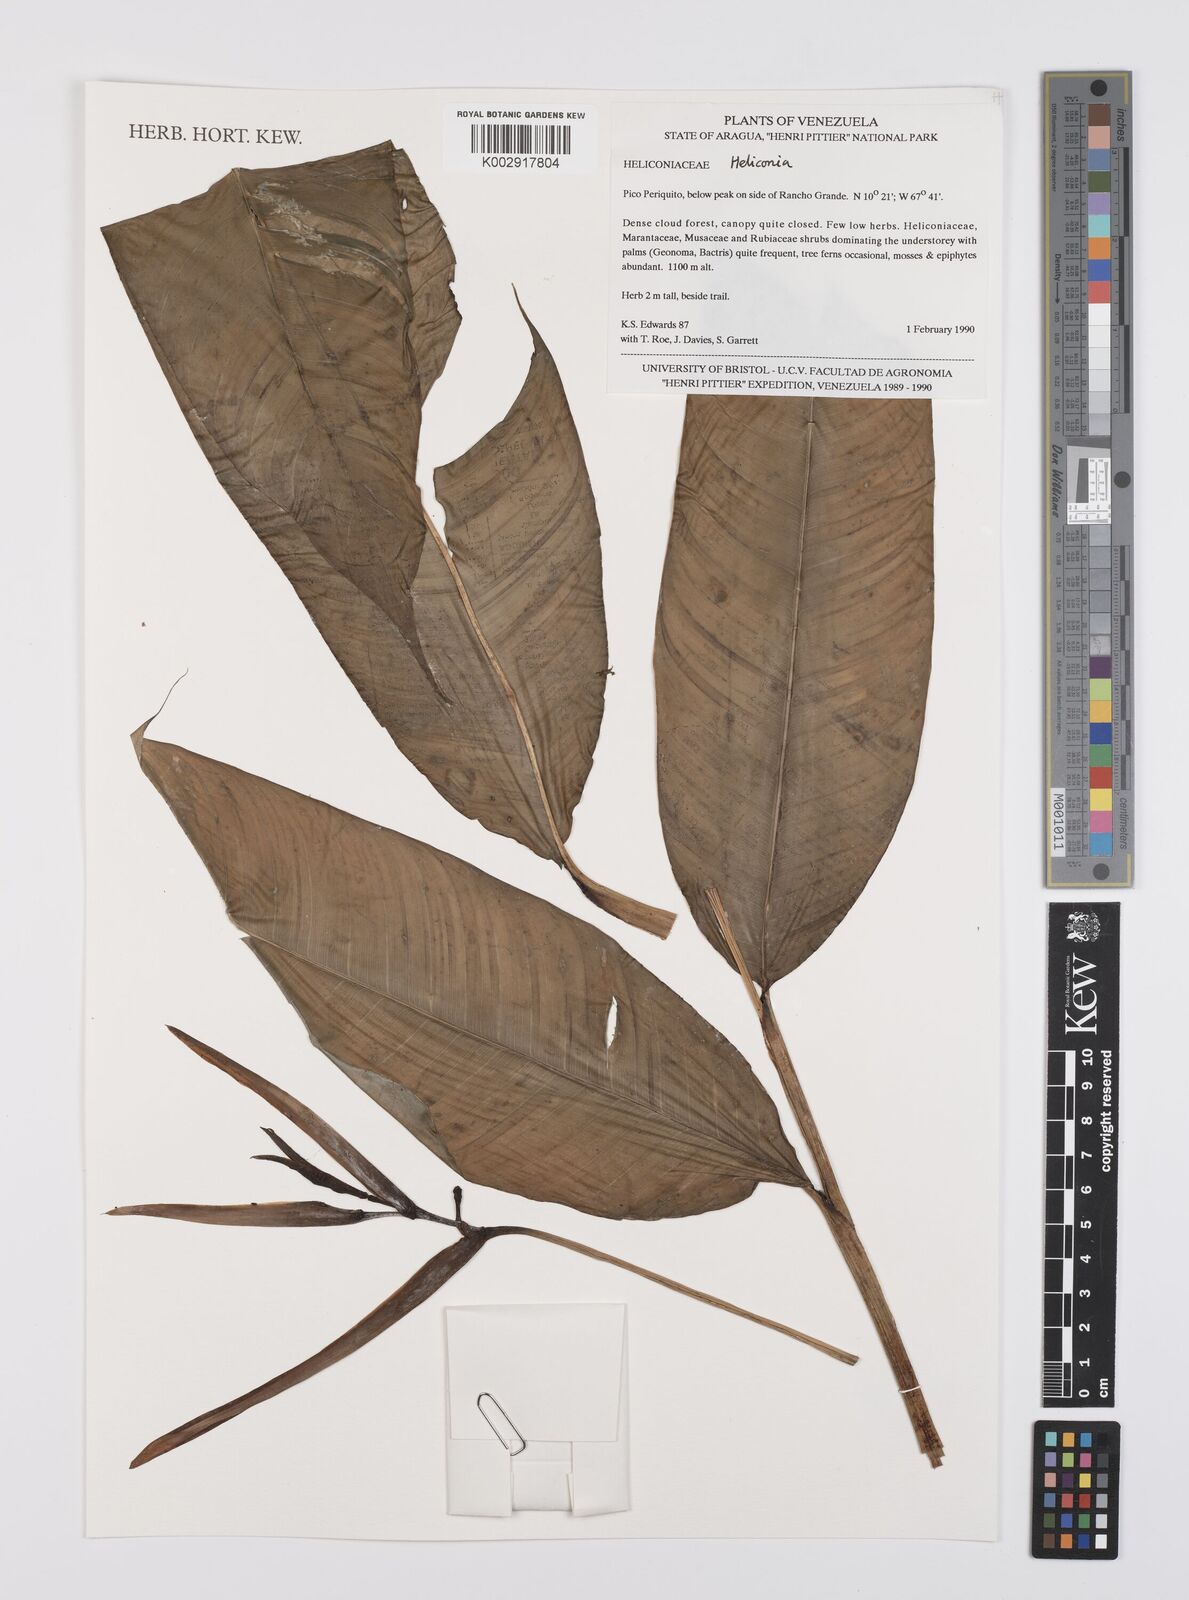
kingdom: Plantae
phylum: Tracheophyta
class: Liliopsida
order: Zingiberales
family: Heliconiaceae
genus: Heliconia
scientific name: Heliconia
